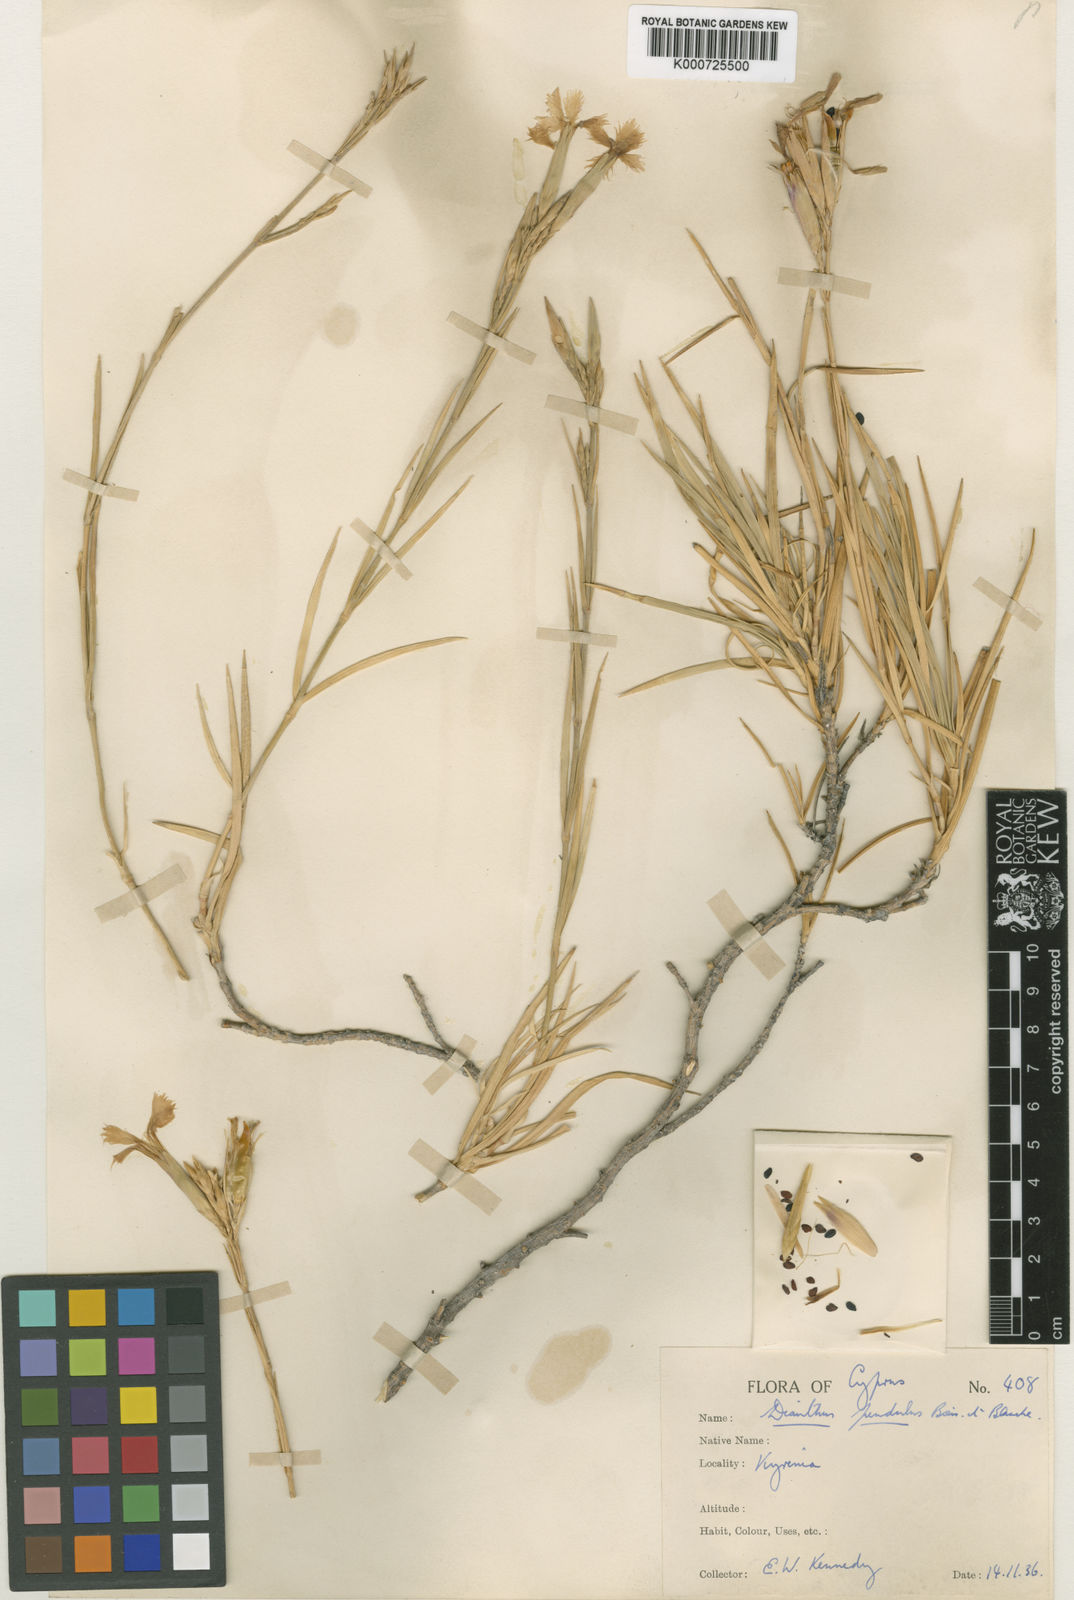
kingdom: Plantae
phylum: Tracheophyta
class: Magnoliopsida
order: Caryophyllales
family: Caryophyllaceae
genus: Dianthus
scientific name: Dianthus cyprius
